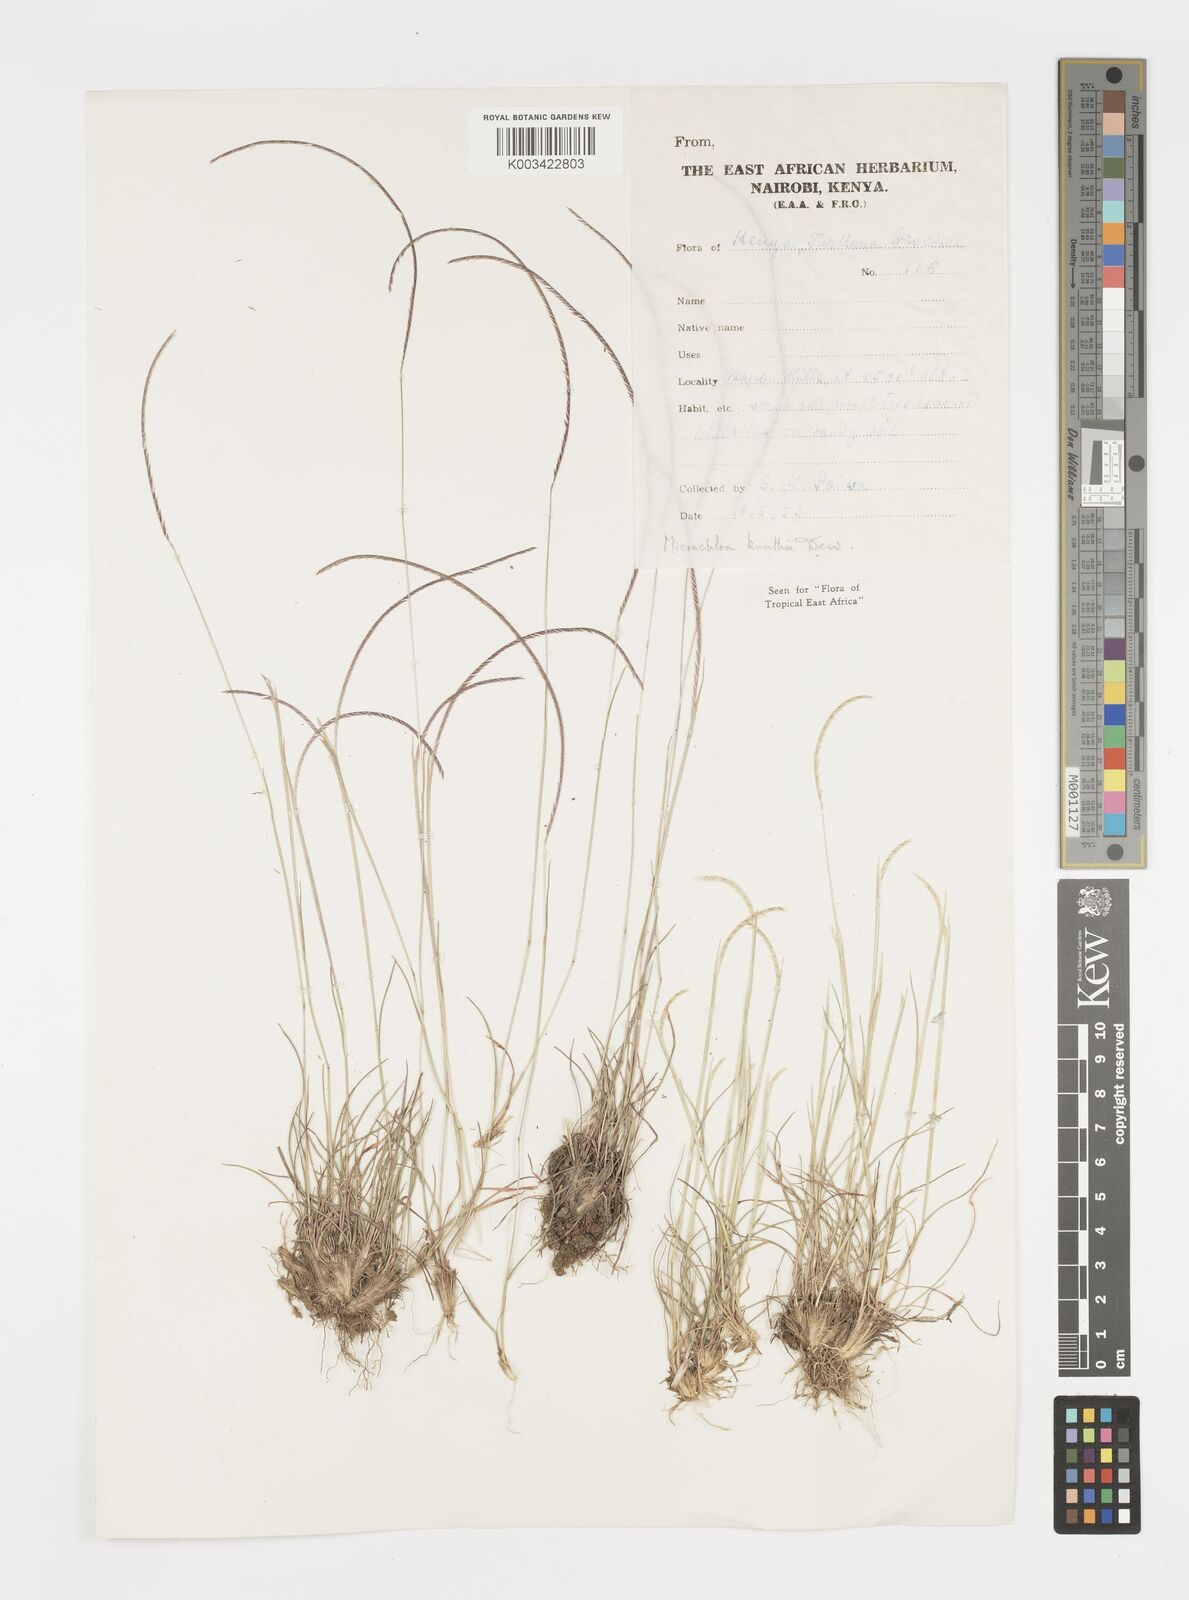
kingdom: Plantae
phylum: Tracheophyta
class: Liliopsida
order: Poales
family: Poaceae
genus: Microchloa
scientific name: Microchloa kunthii
